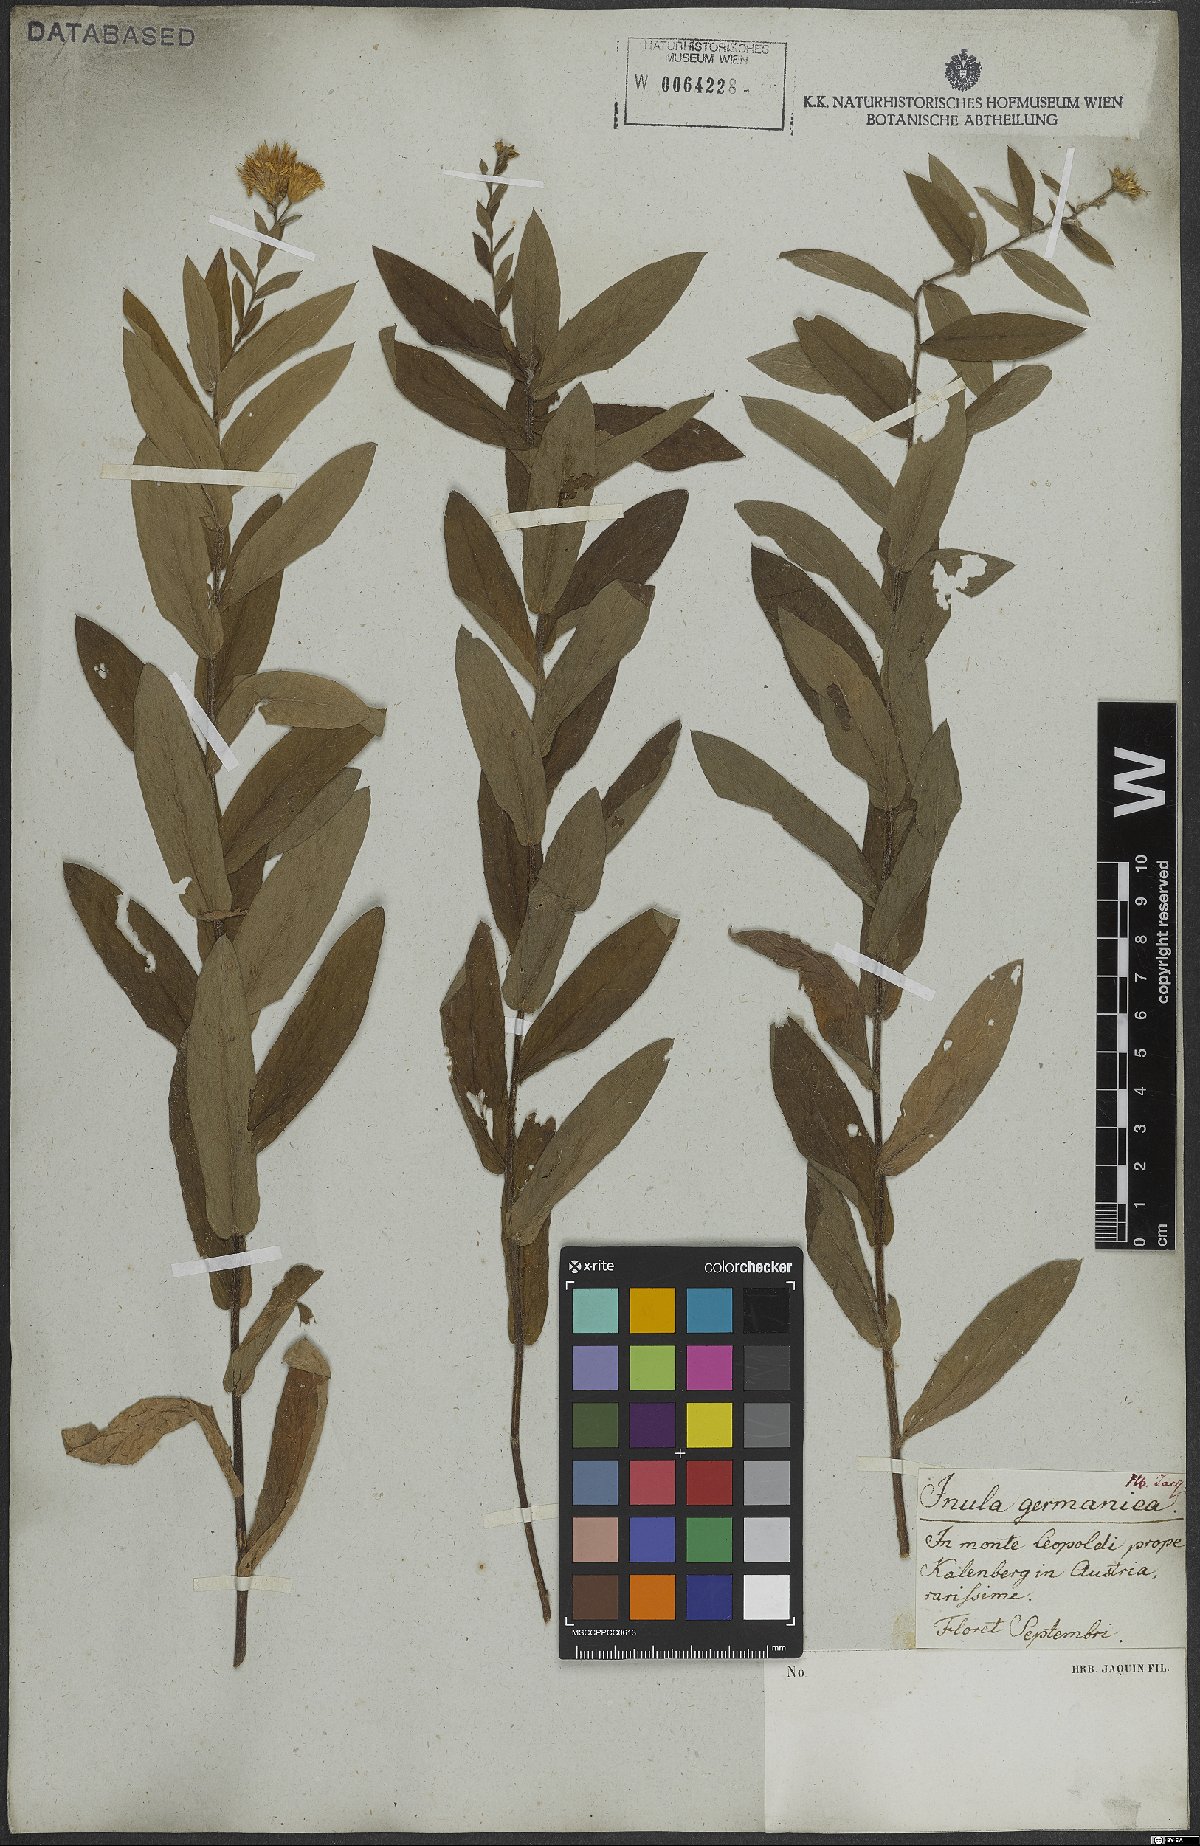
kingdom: Plantae
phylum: Tracheophyta
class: Magnoliopsida
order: Asterales
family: Asteraceae
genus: Pentanema
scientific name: Pentanema germanicum
